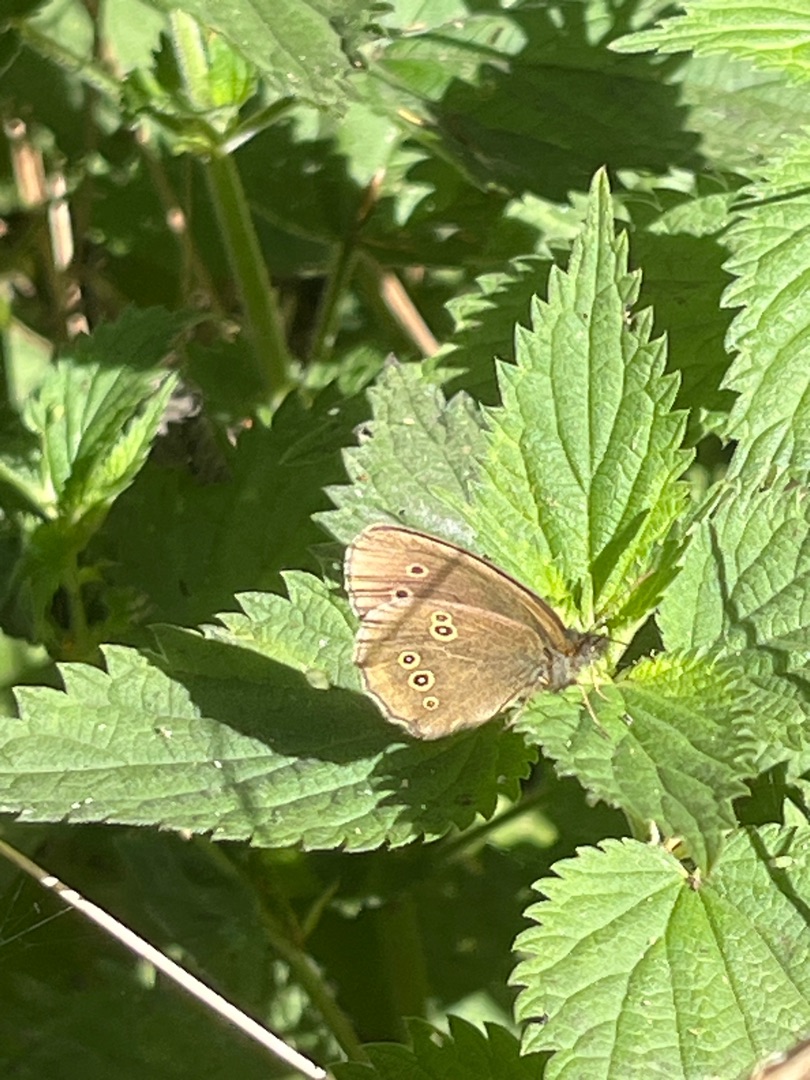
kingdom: Animalia
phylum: Arthropoda
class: Insecta
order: Lepidoptera
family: Nymphalidae
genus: Aphantopus
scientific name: Aphantopus hyperantus
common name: Engrandøje
